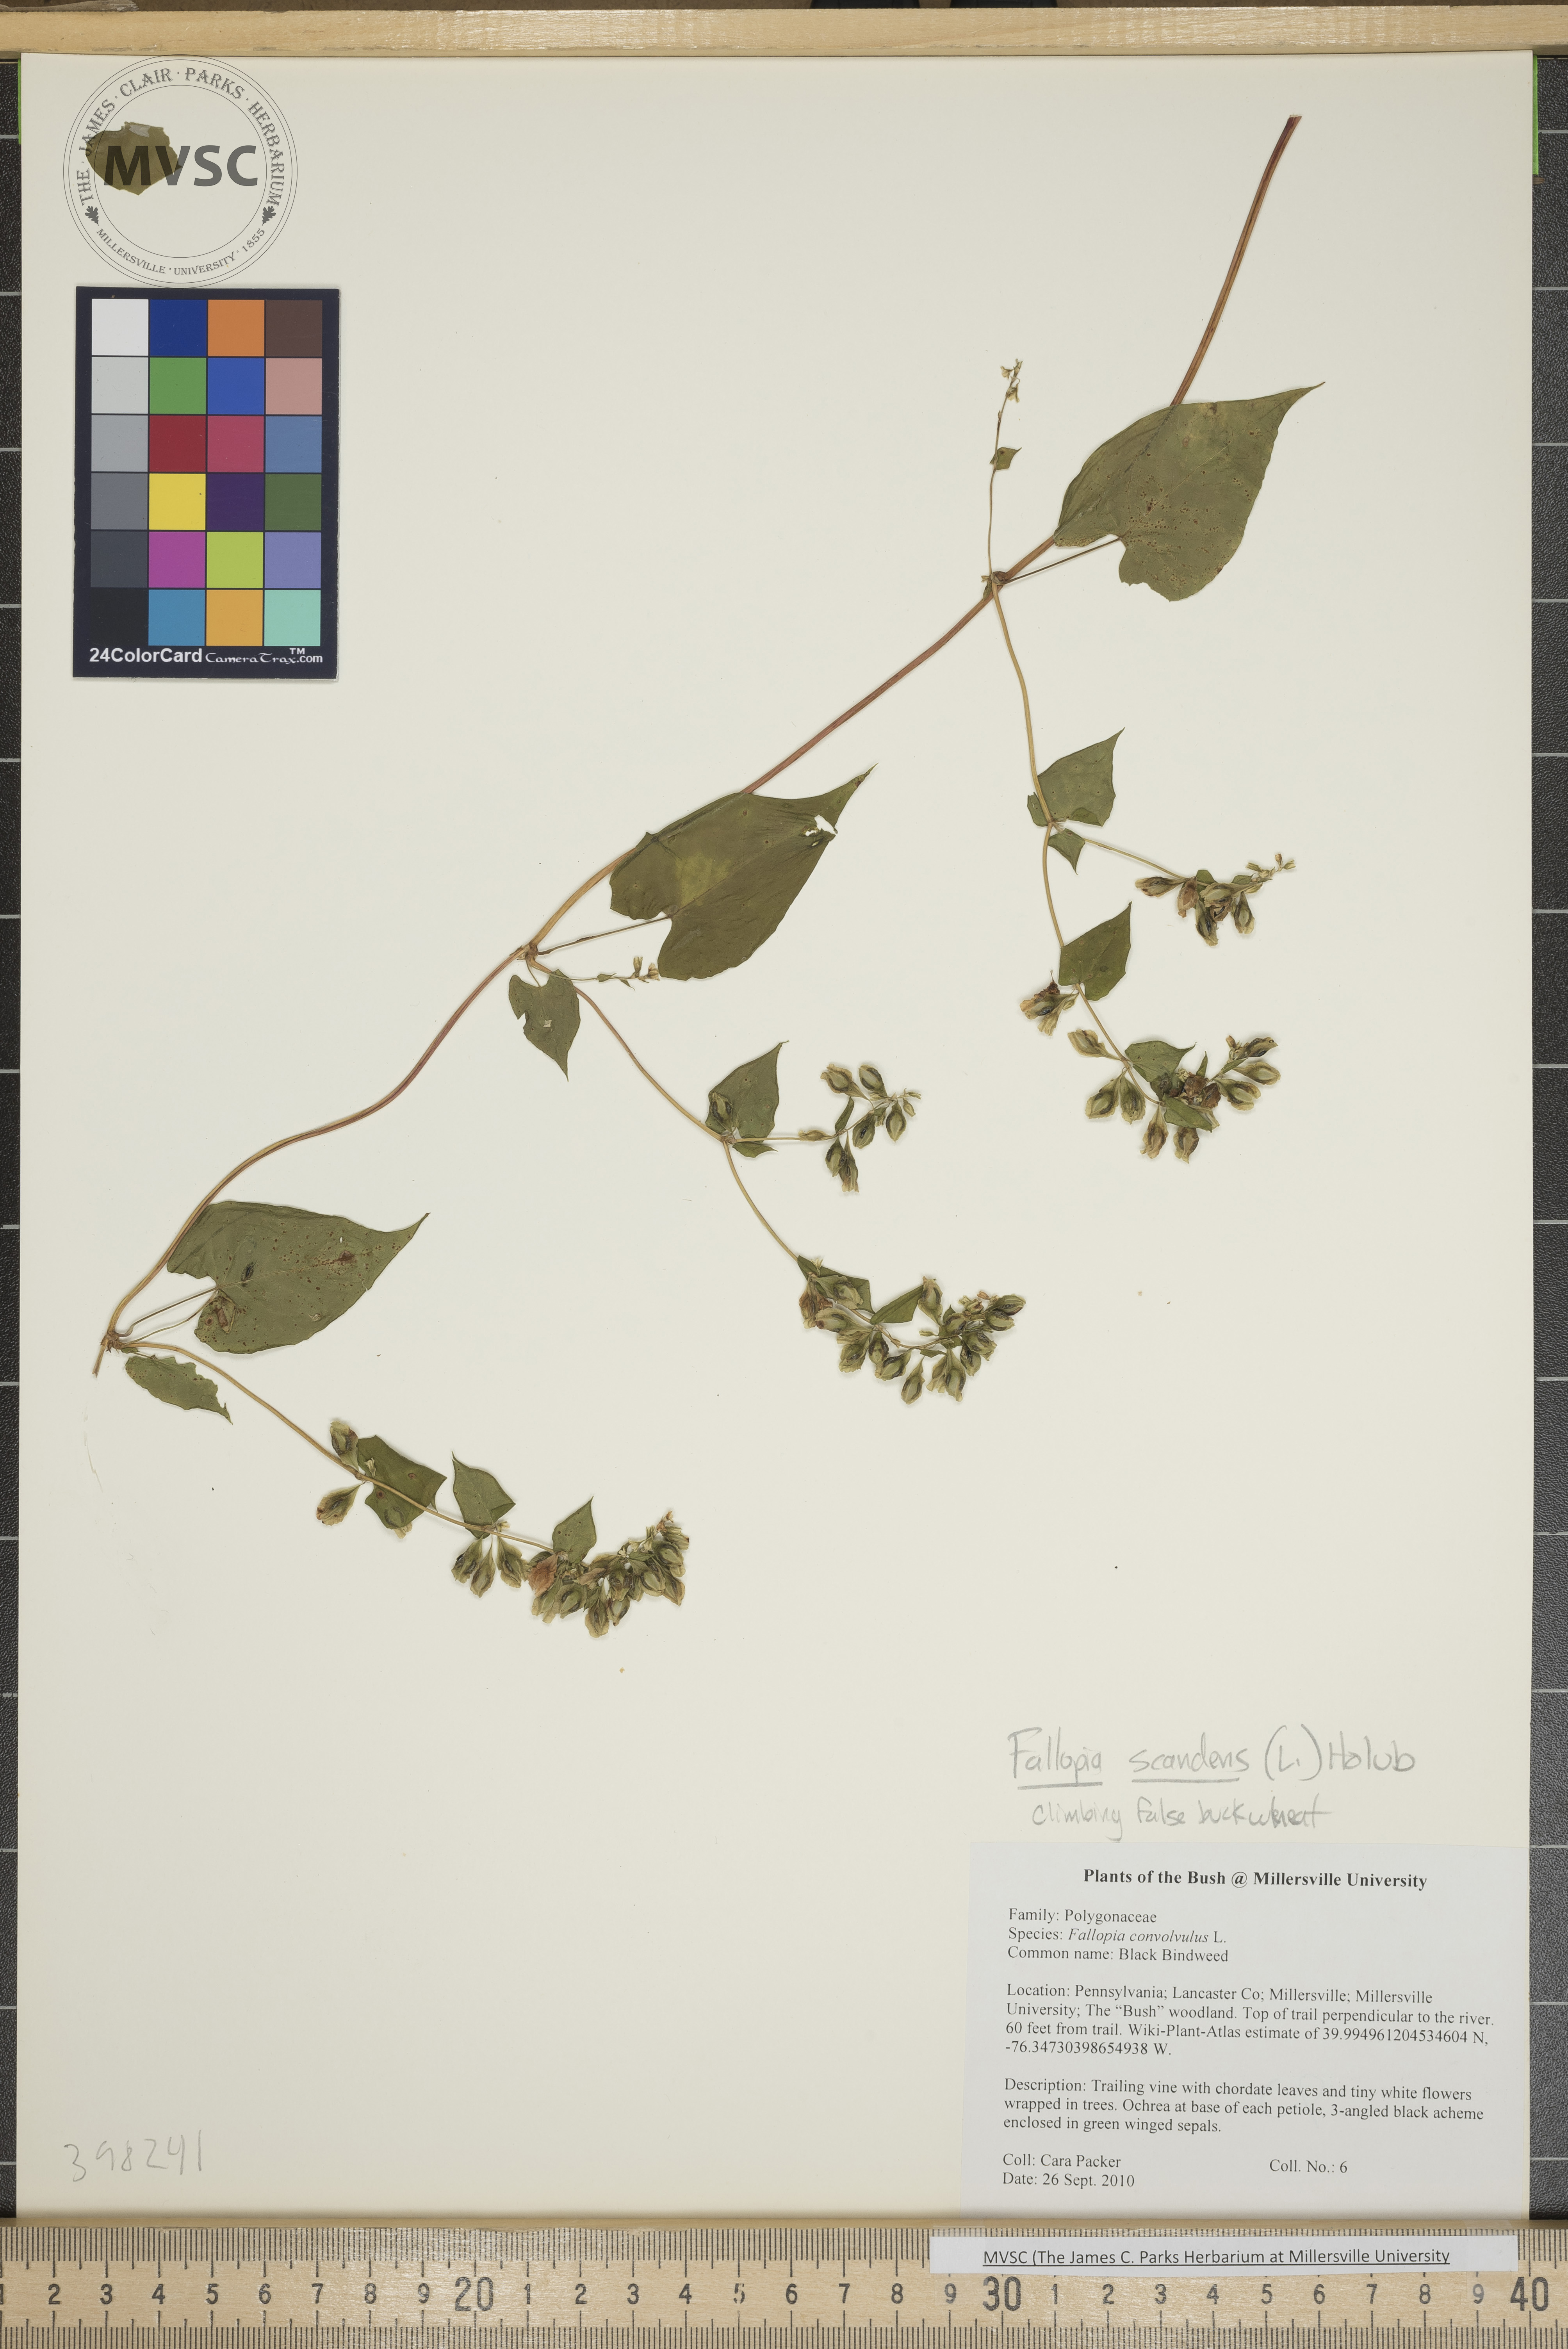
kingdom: Plantae
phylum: Tracheophyta
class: Magnoliopsida
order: Caryophyllales
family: Polygonaceae
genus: Fallopia
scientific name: Fallopia scandens
